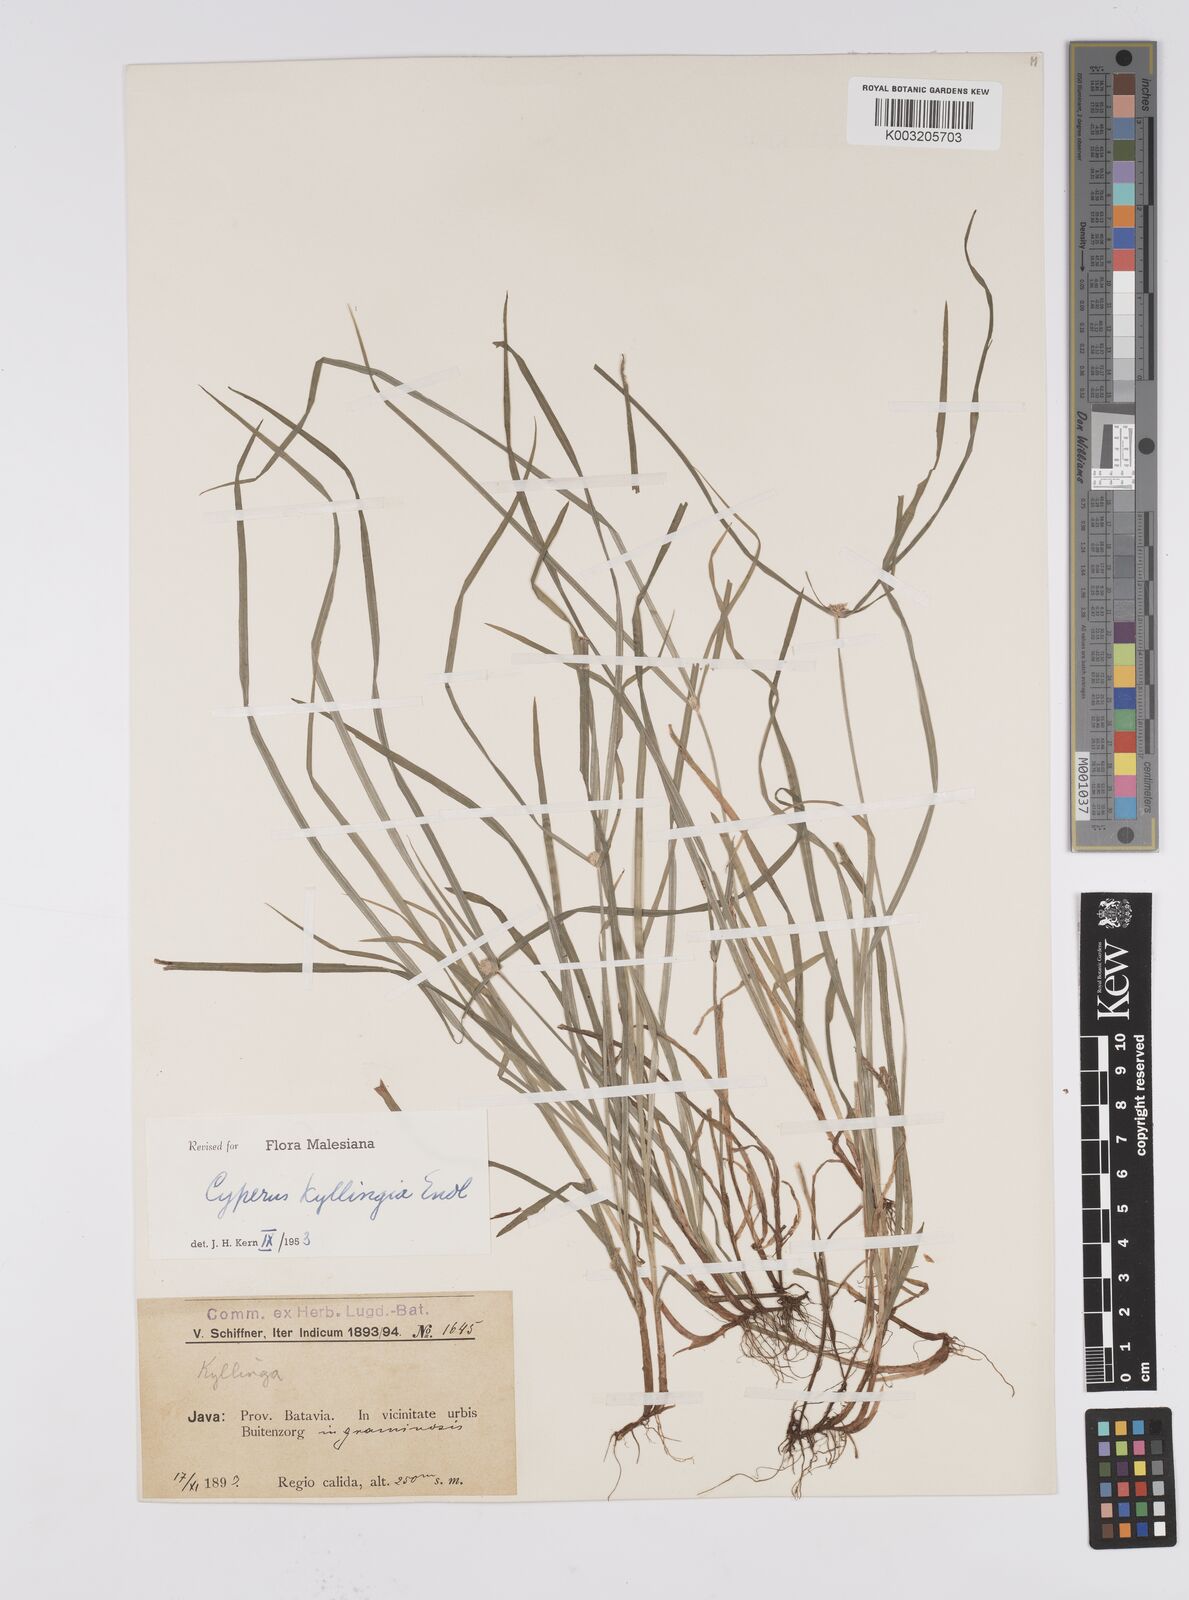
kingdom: Plantae
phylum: Tracheophyta
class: Liliopsida
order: Poales
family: Cyperaceae
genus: Cyperus
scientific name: Cyperus nemoralis
